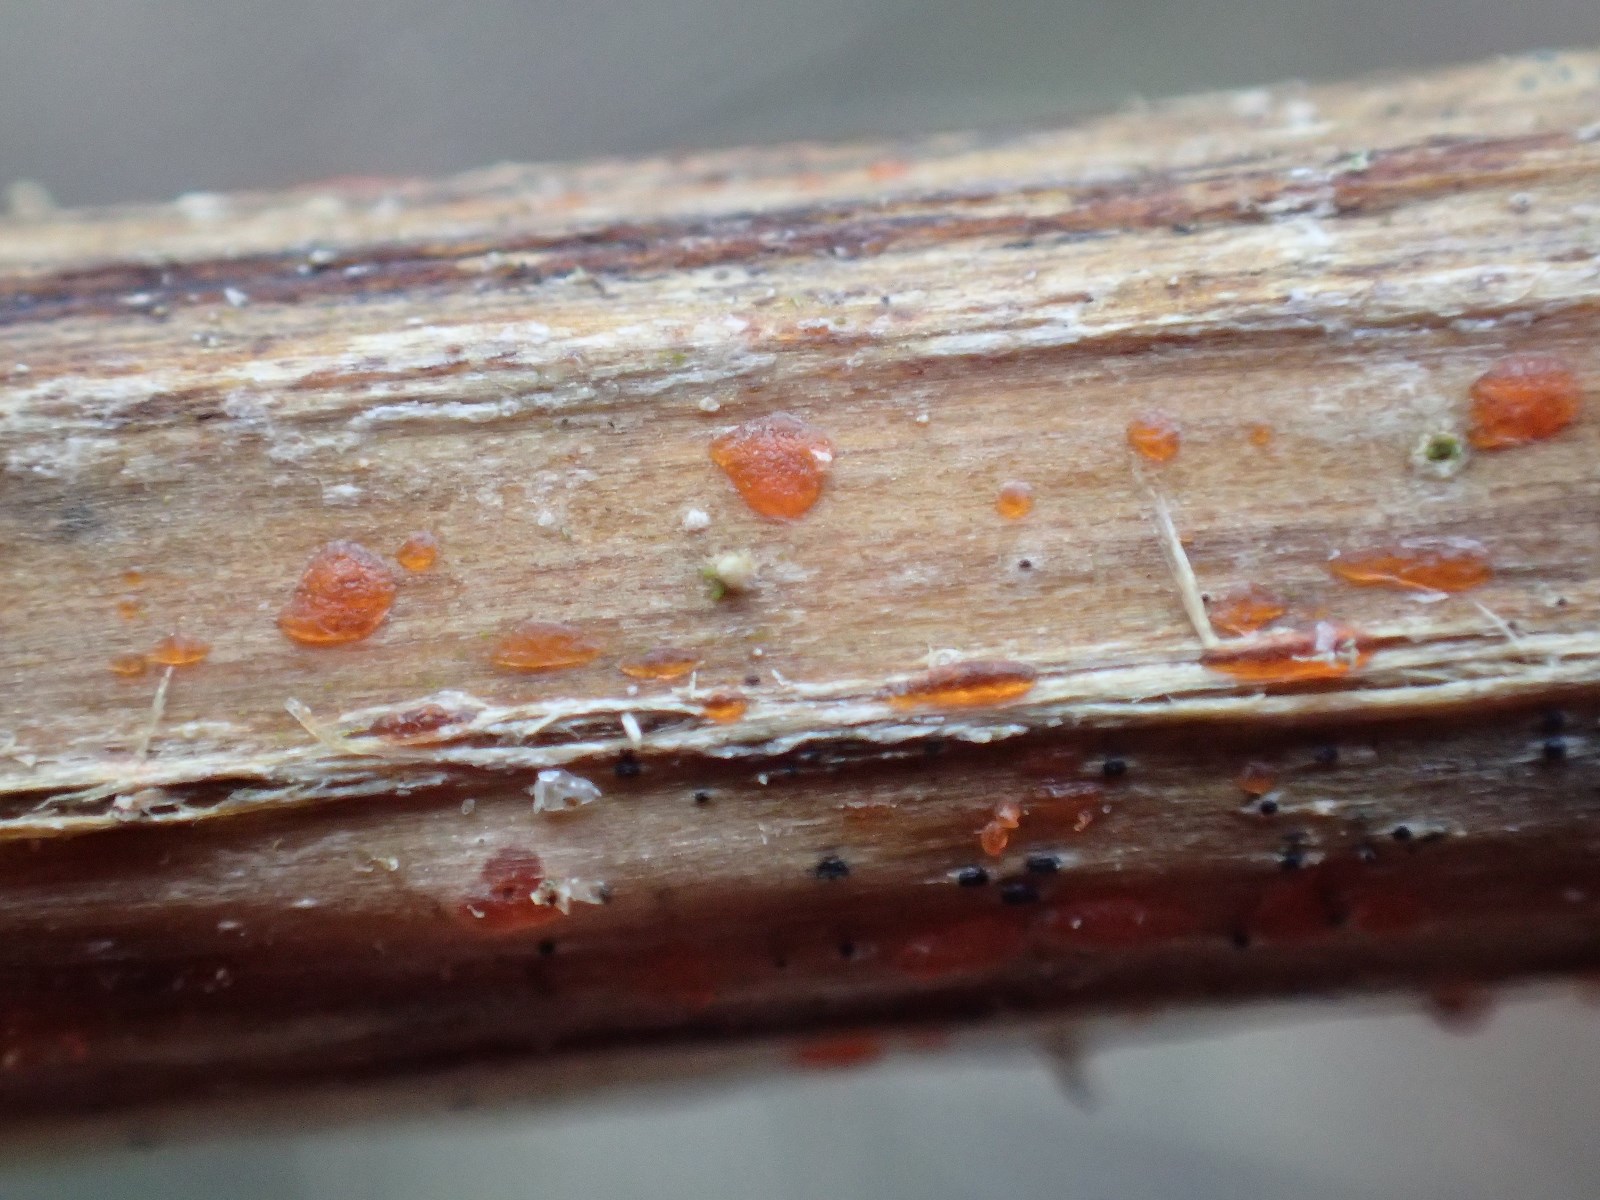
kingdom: Fungi
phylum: Ascomycota
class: Leotiomycetes
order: Helotiales
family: Calloriaceae
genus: Calloria
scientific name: Calloria urticae
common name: nælde-orangeskive
